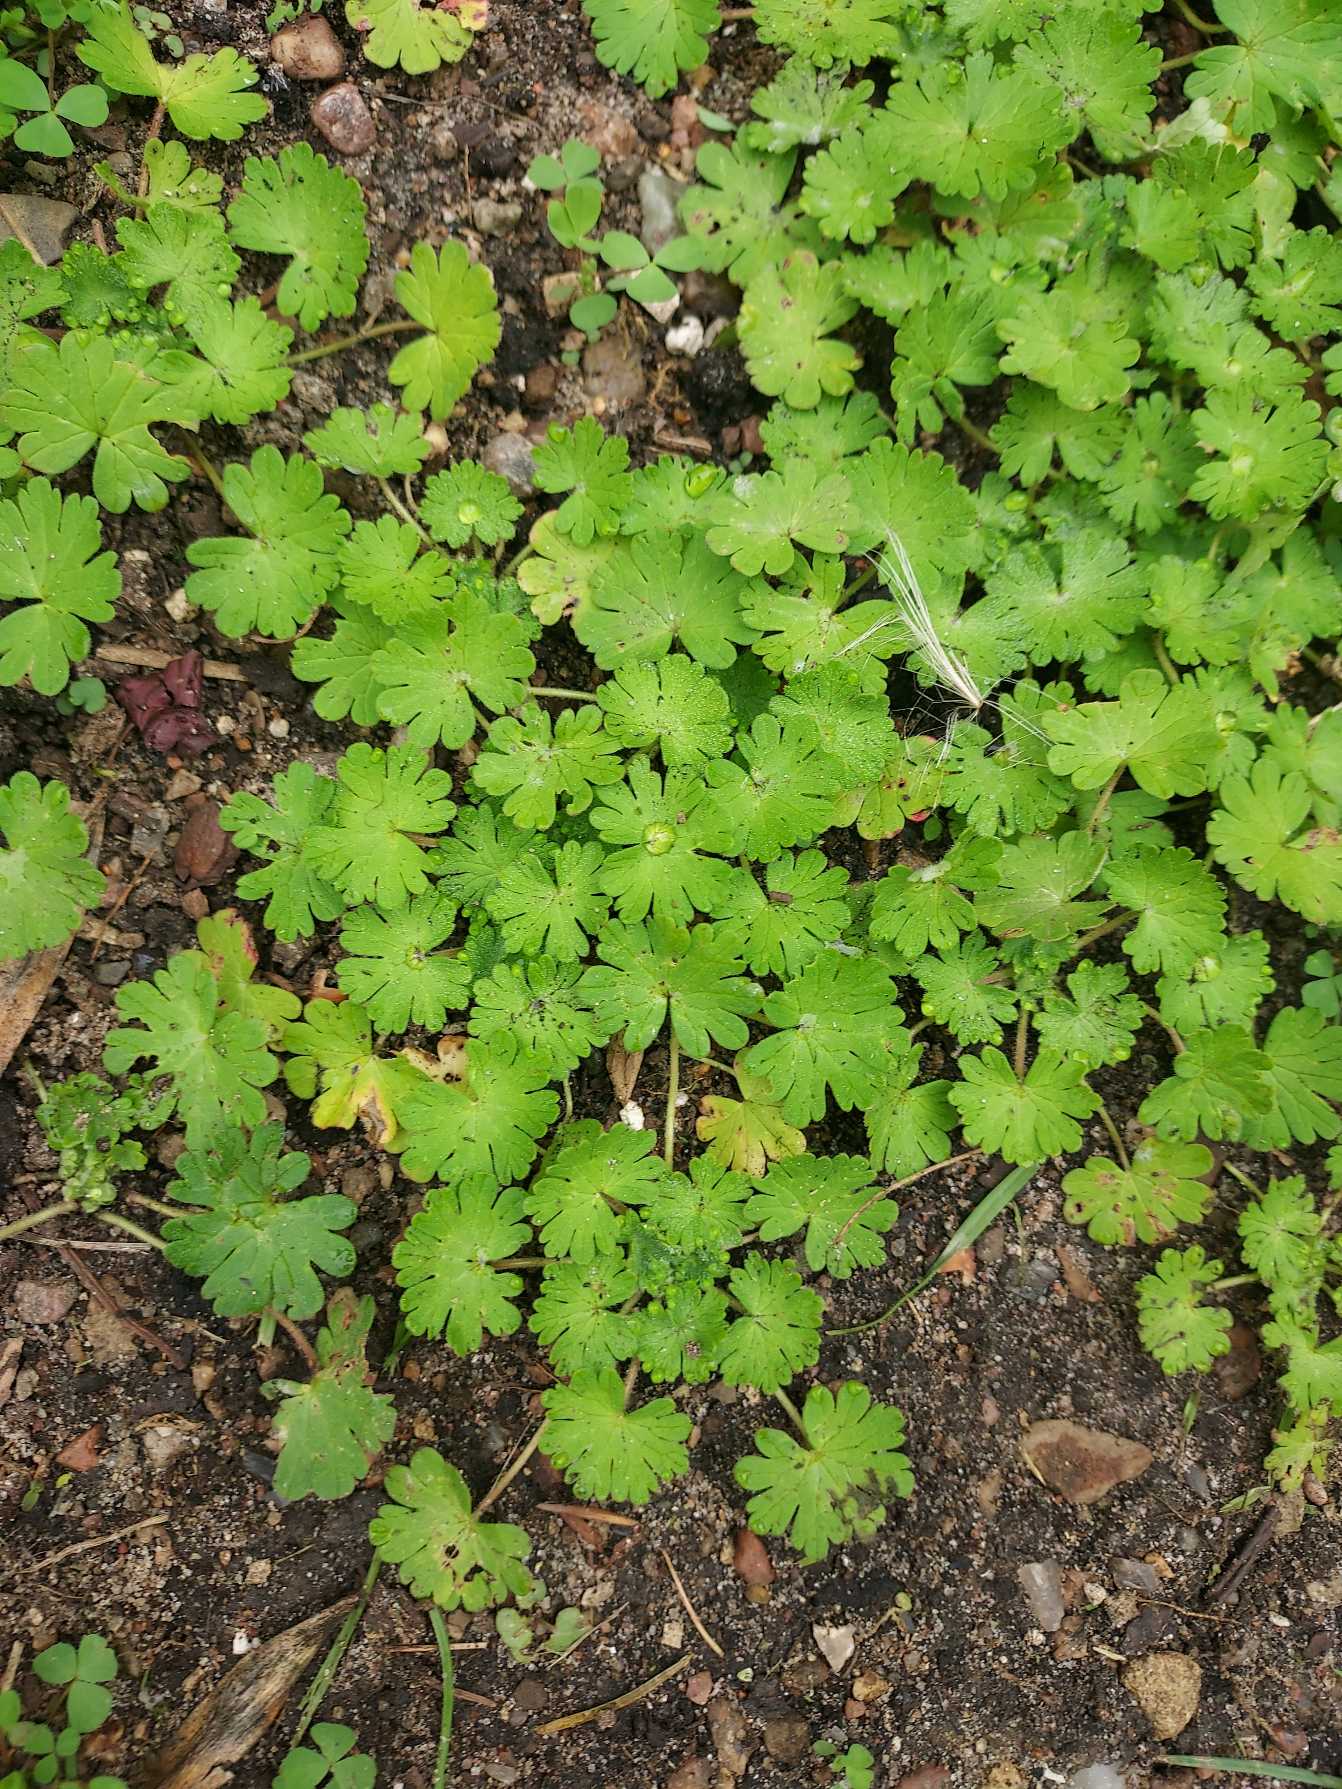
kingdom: Plantae
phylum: Tracheophyta
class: Magnoliopsida
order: Geraniales
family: Geraniaceae
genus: Geranium
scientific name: Geranium molle
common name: Blød storkenæb
